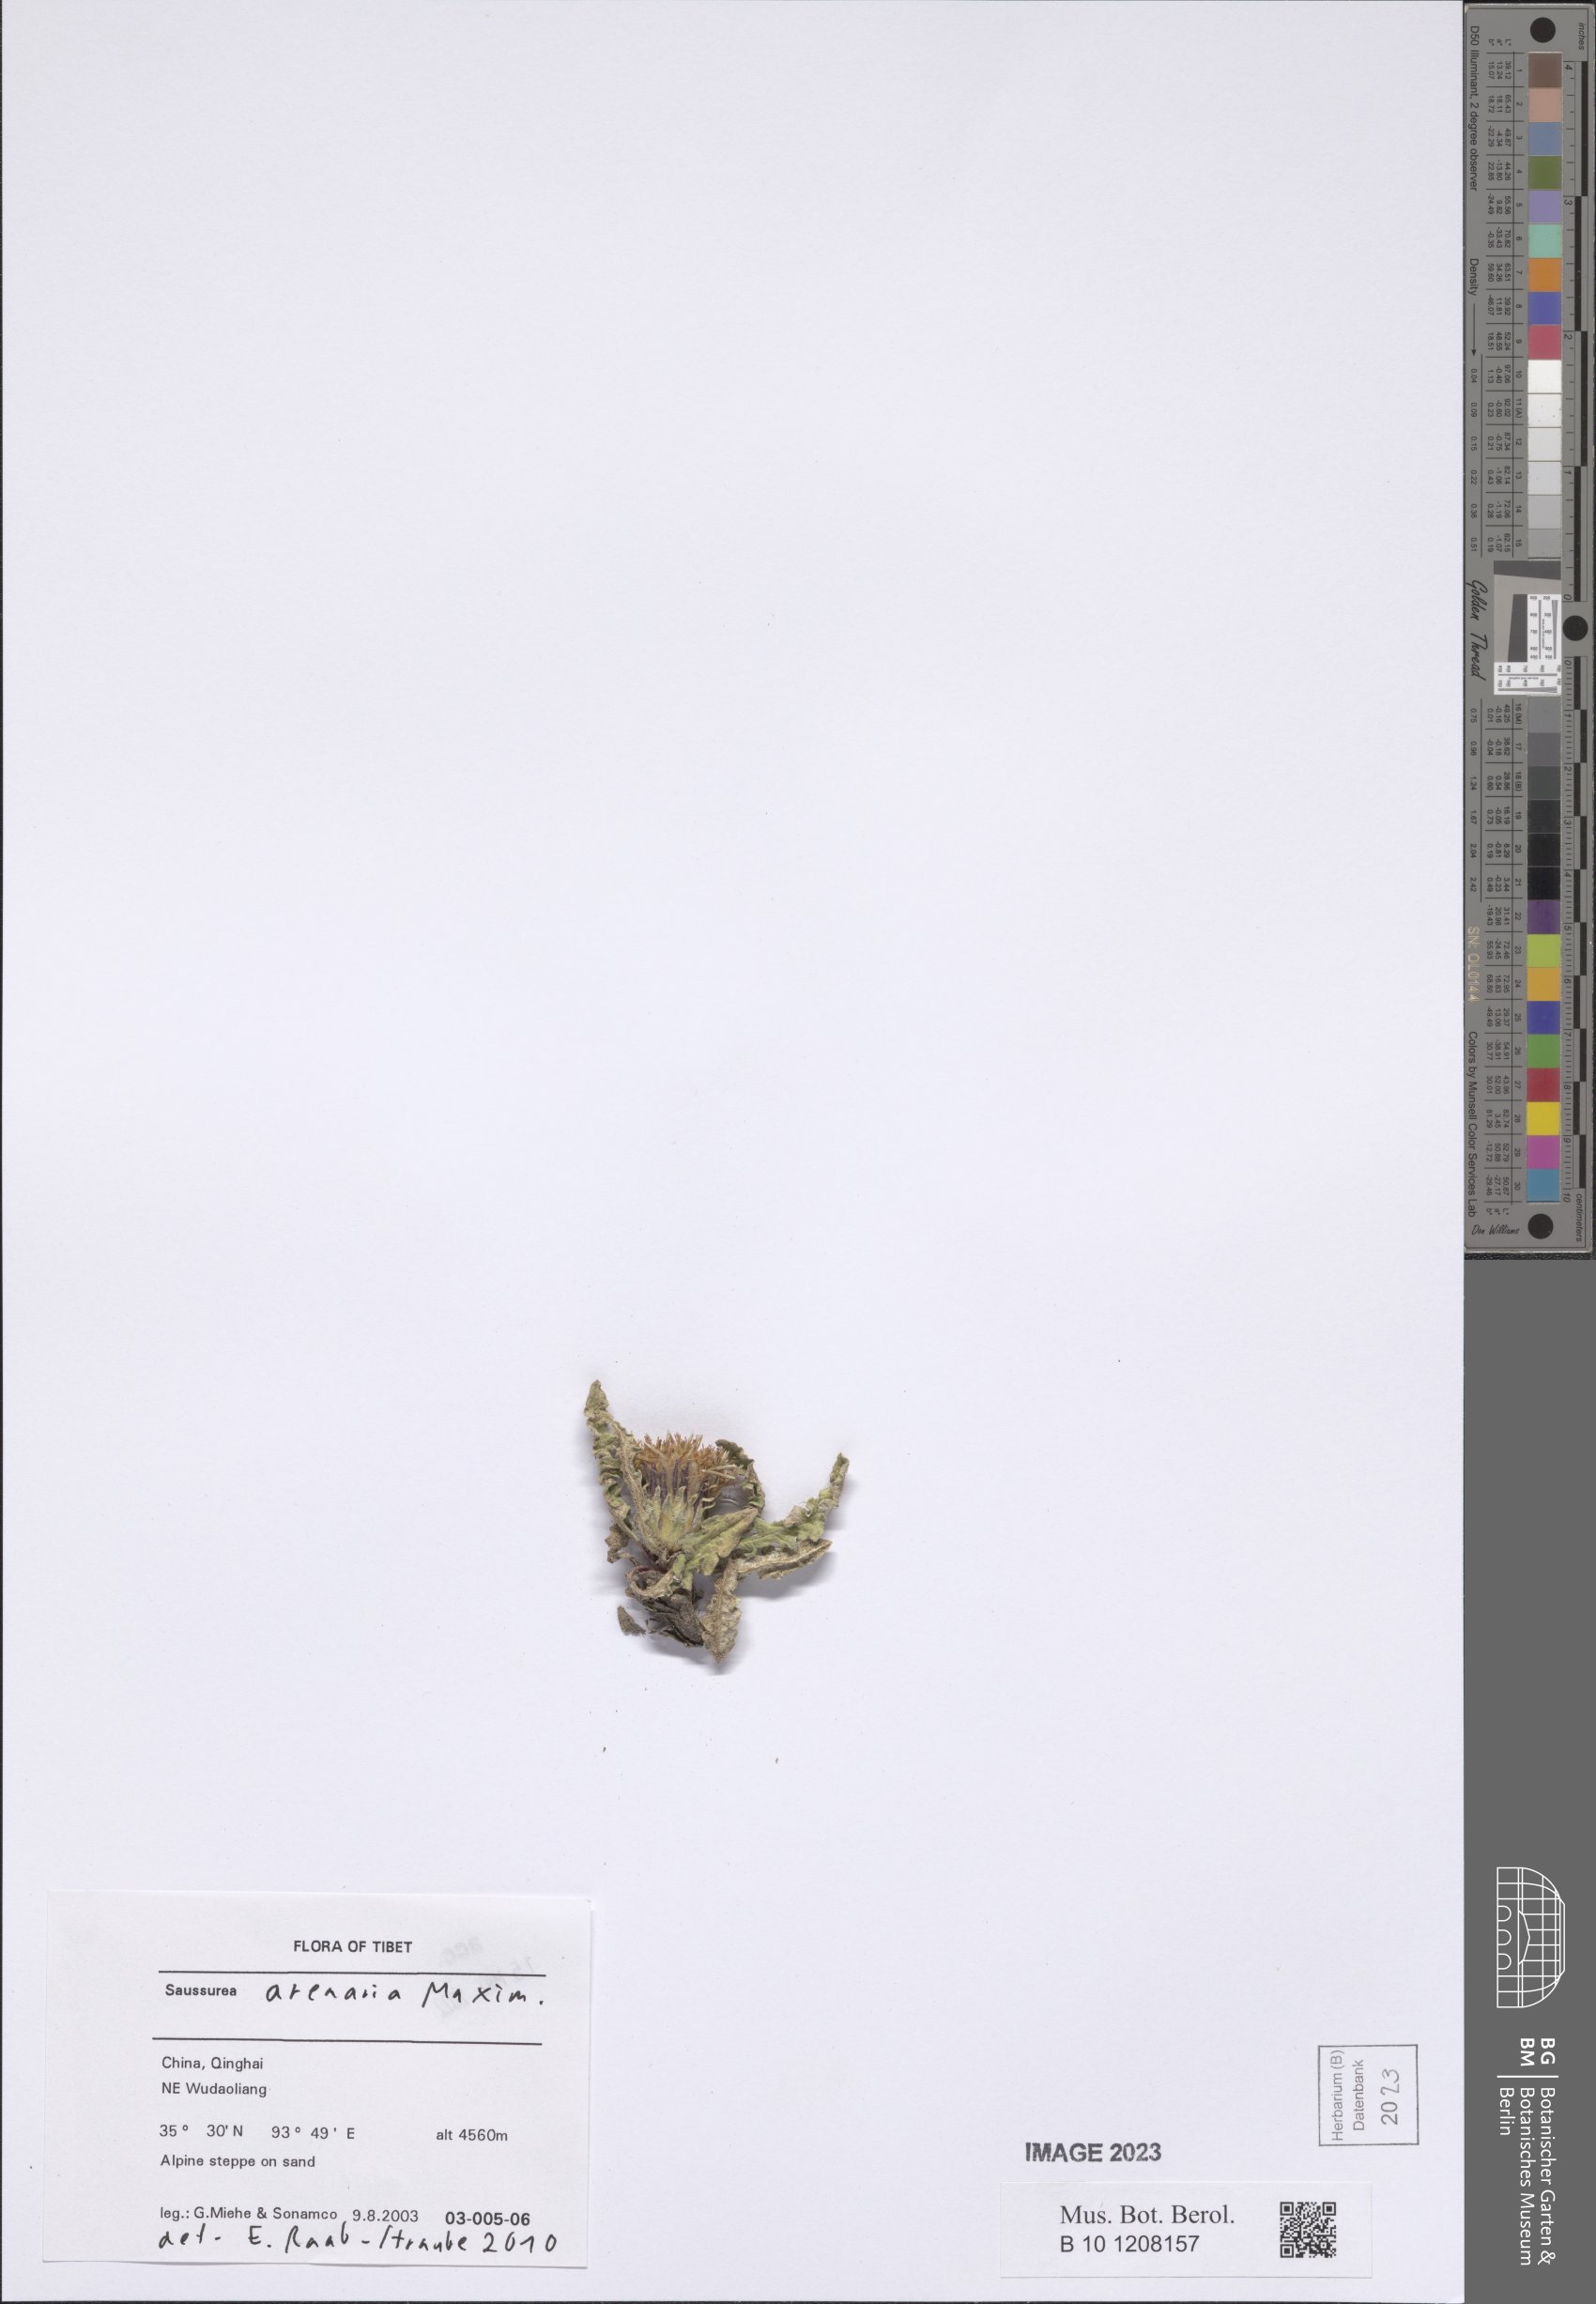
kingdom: Plantae
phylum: Tracheophyta
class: Magnoliopsida
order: Asterales
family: Asteraceae
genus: Saussurea
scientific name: Saussurea arenaria
